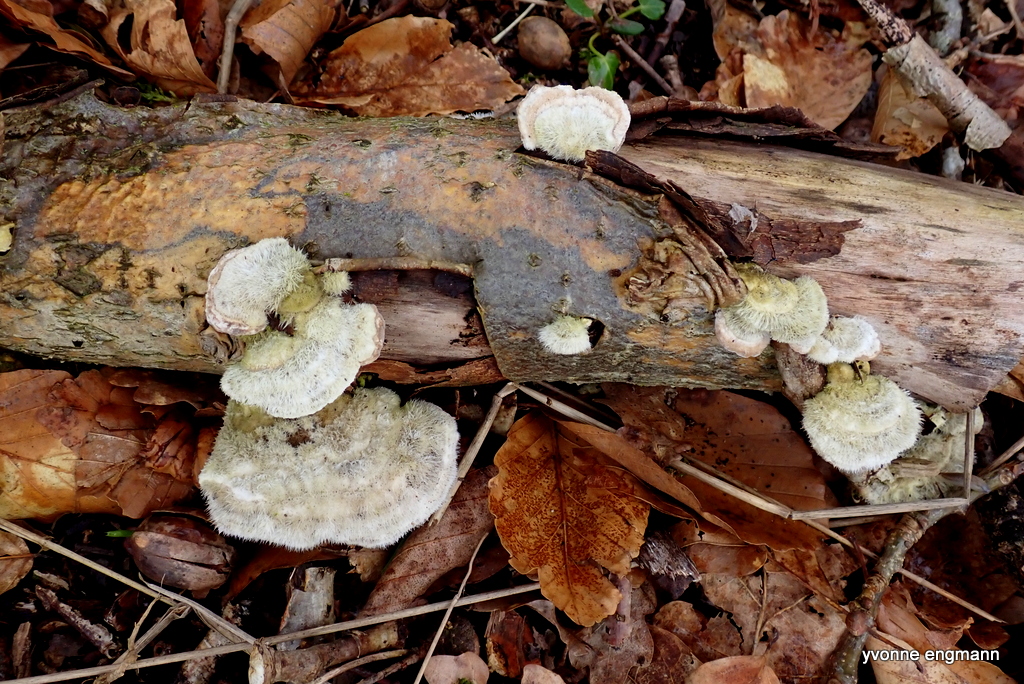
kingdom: Fungi
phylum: Basidiomycota
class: Agaricomycetes
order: Polyporales
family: Polyporaceae
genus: Trametes
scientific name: Trametes hirsuta
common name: håret læderporesvamp
